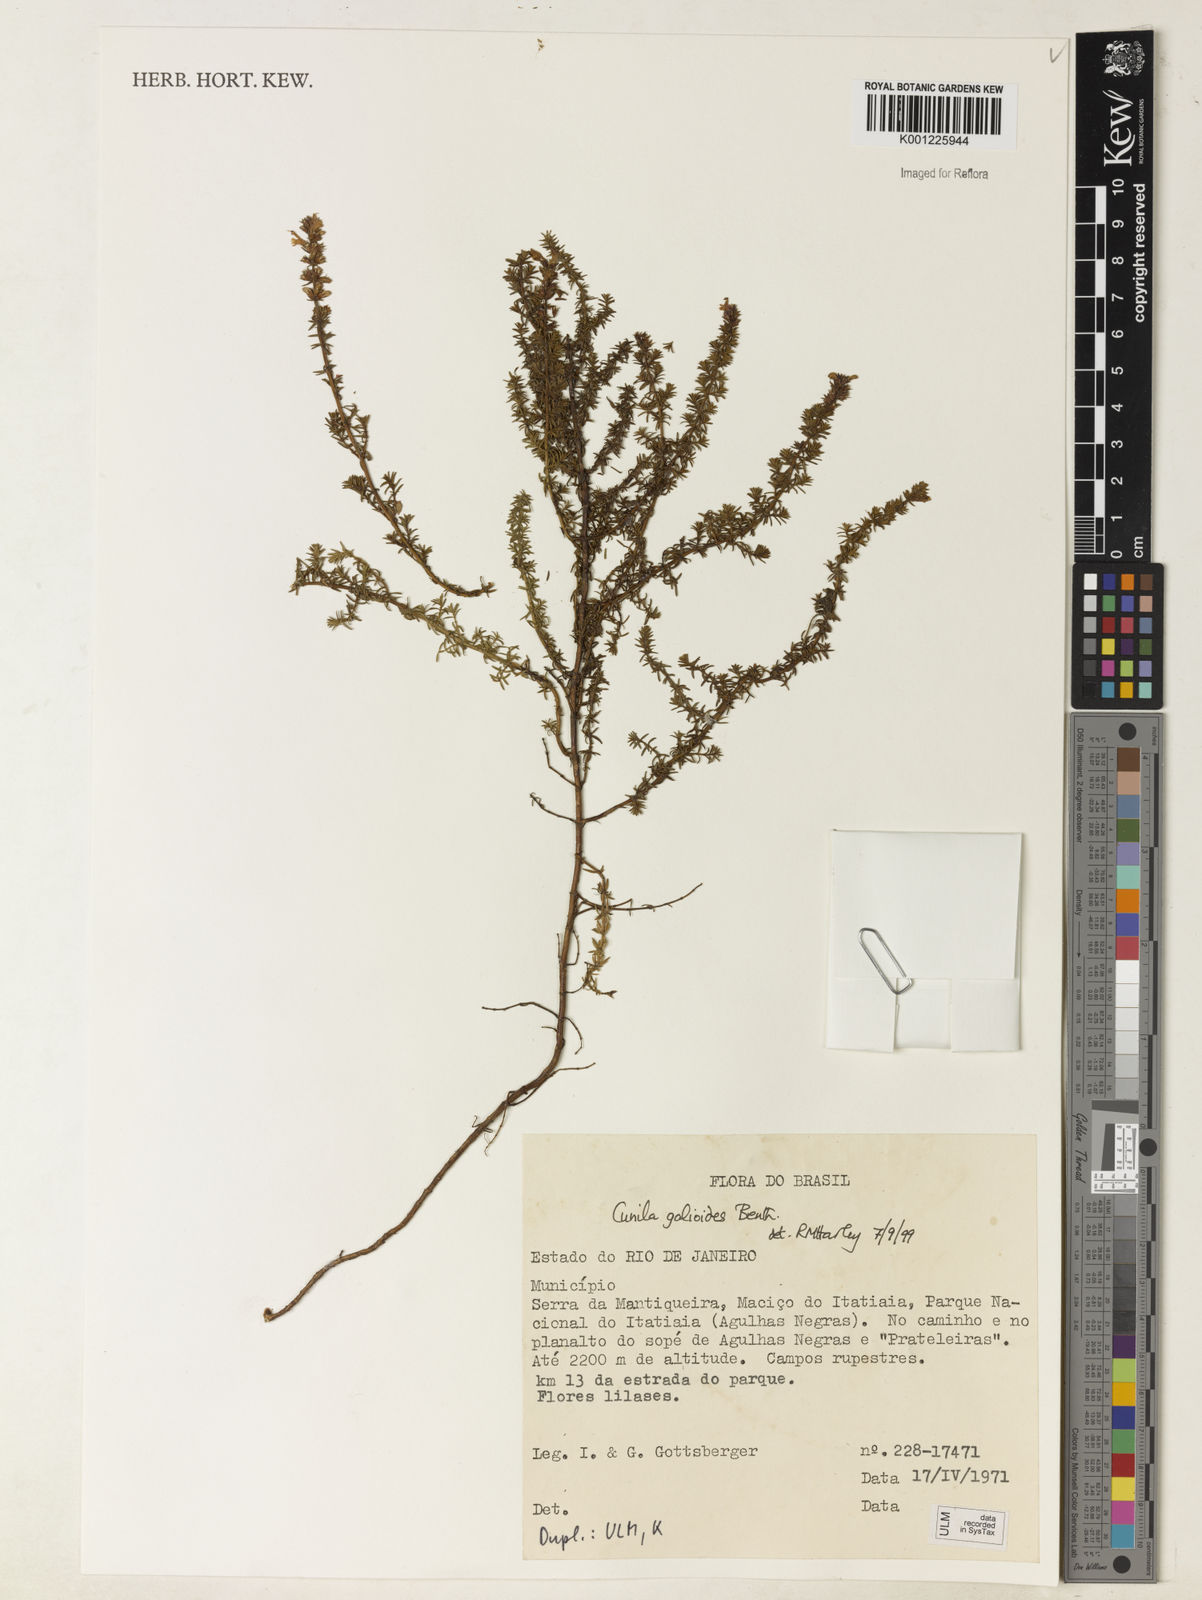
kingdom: Plantae
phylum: Tracheophyta
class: Magnoliopsida
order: Lamiales
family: Lamiaceae
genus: Cunila
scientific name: Cunila galioides
